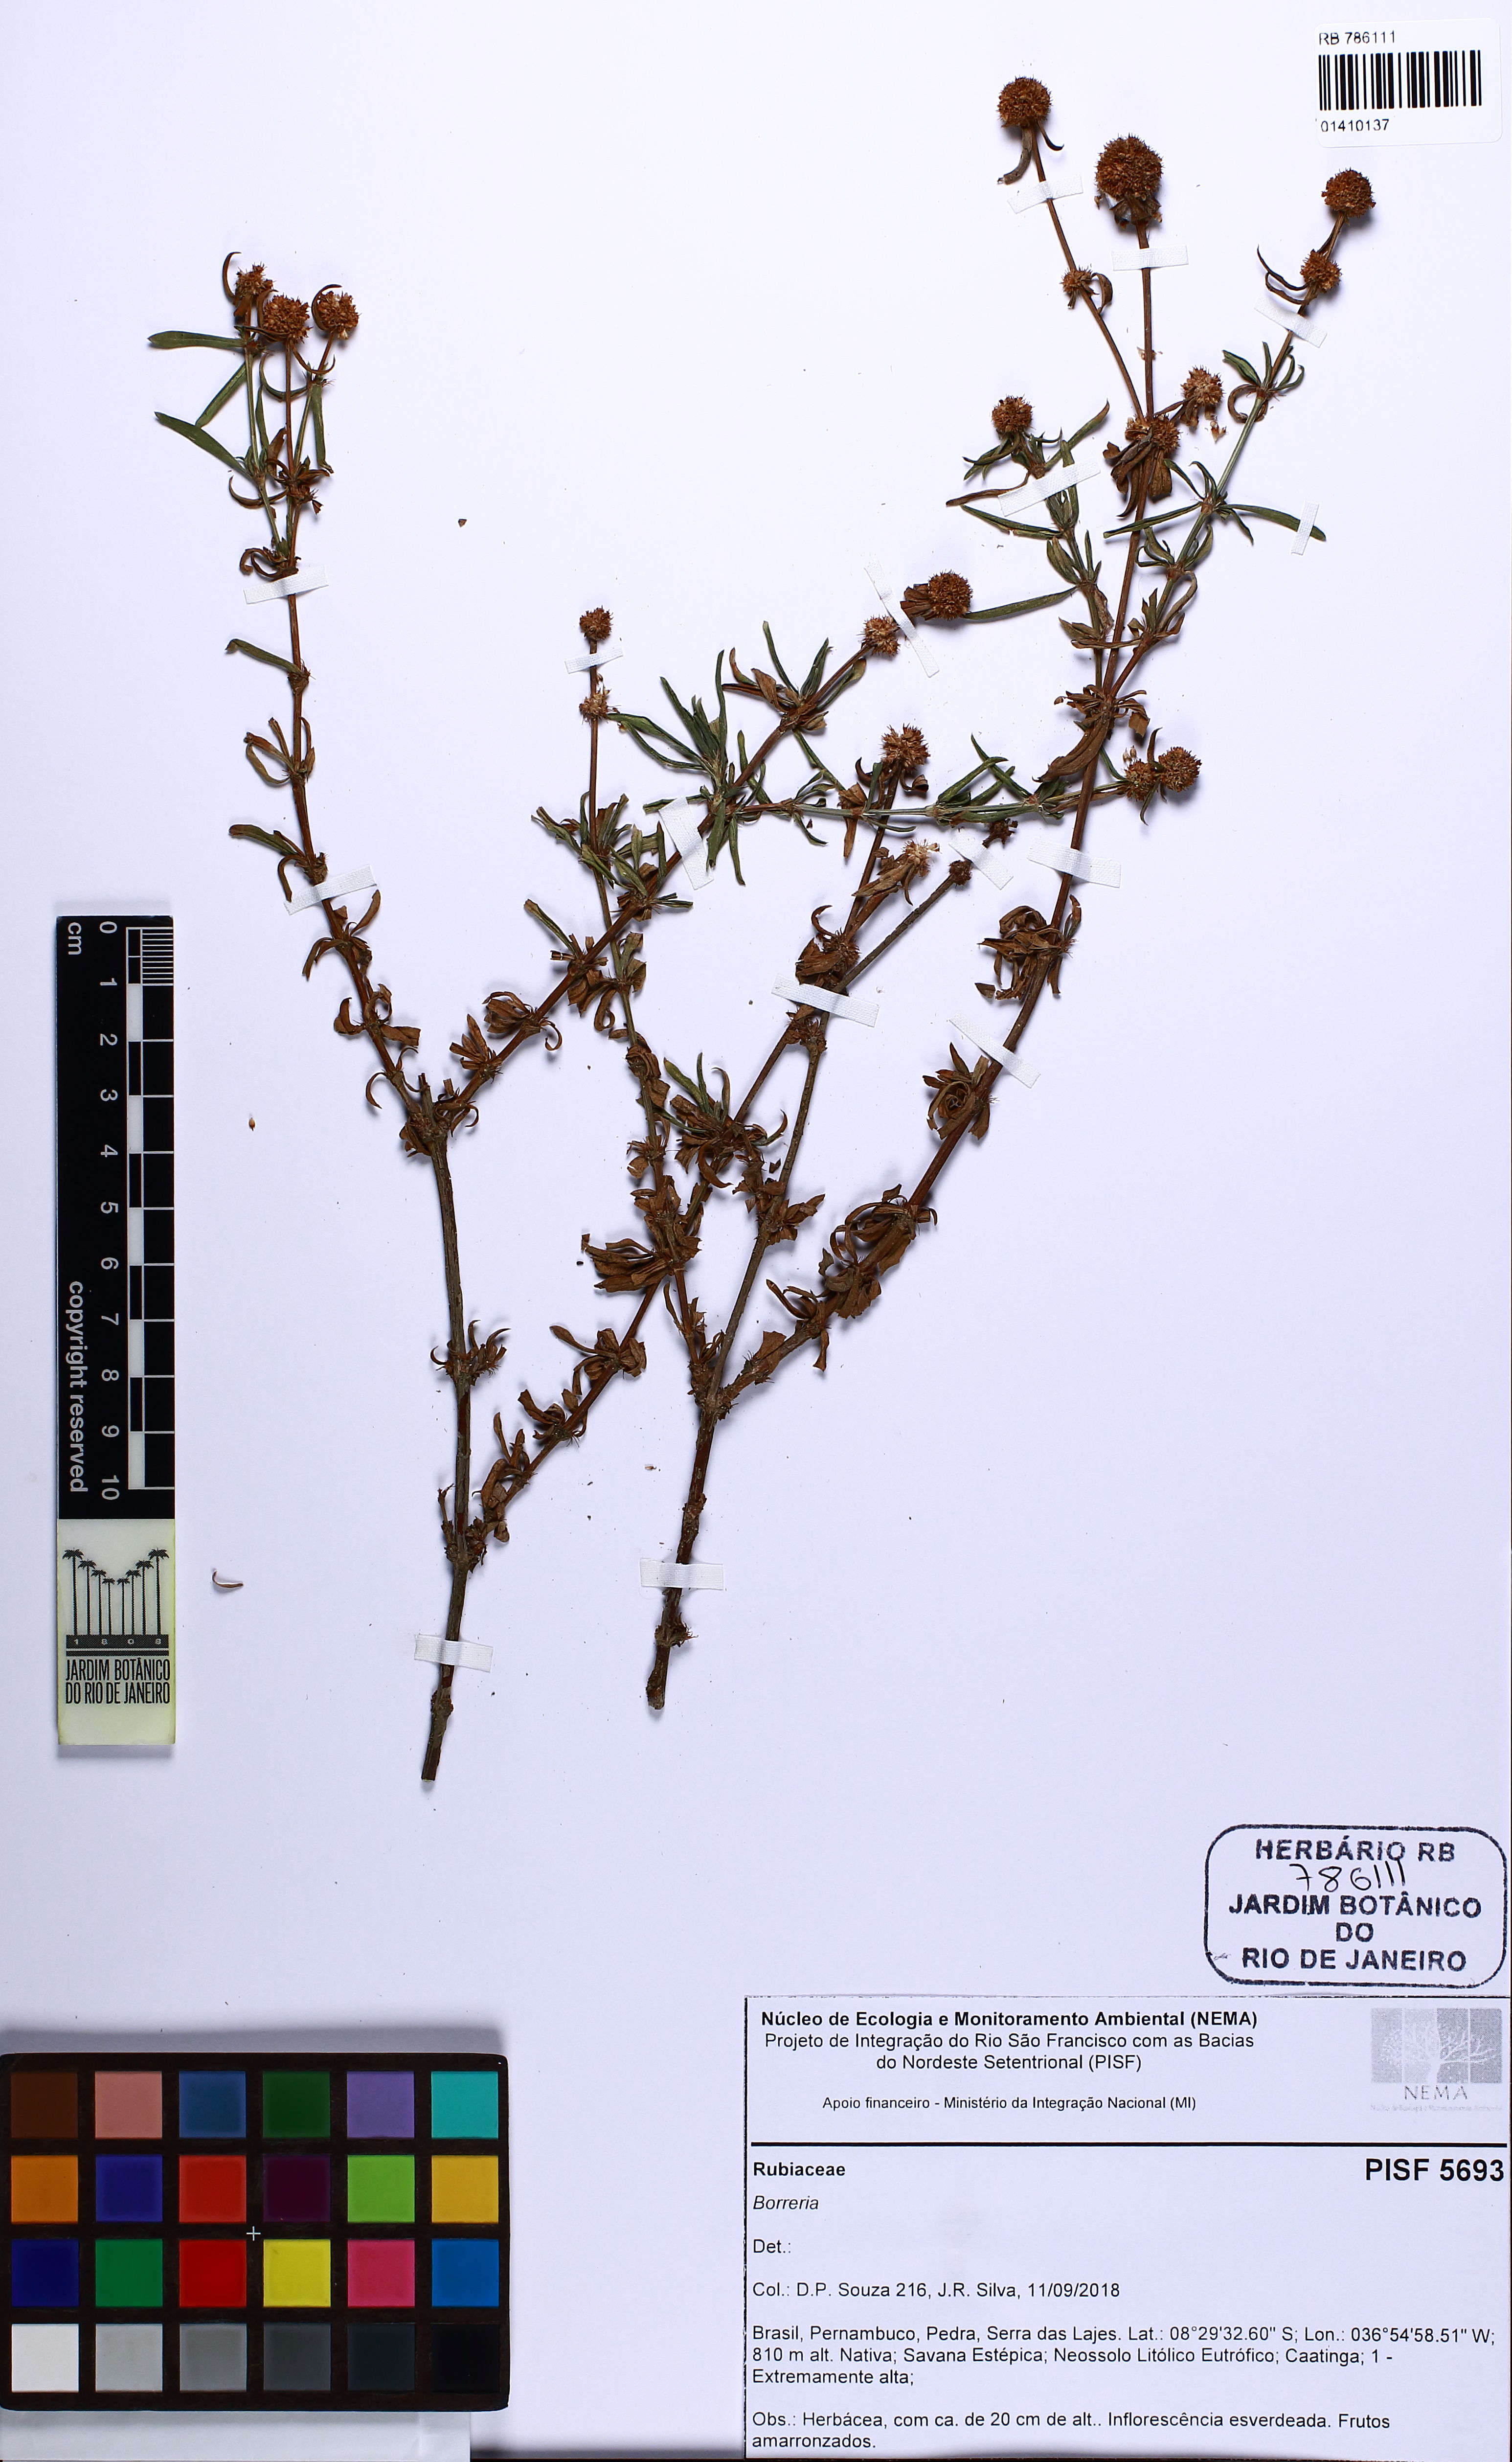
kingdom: Plantae
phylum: Tracheophyta
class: Magnoliopsida
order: Gentianales
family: Rubiaceae
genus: Spermacoce
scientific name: Spermacoce
